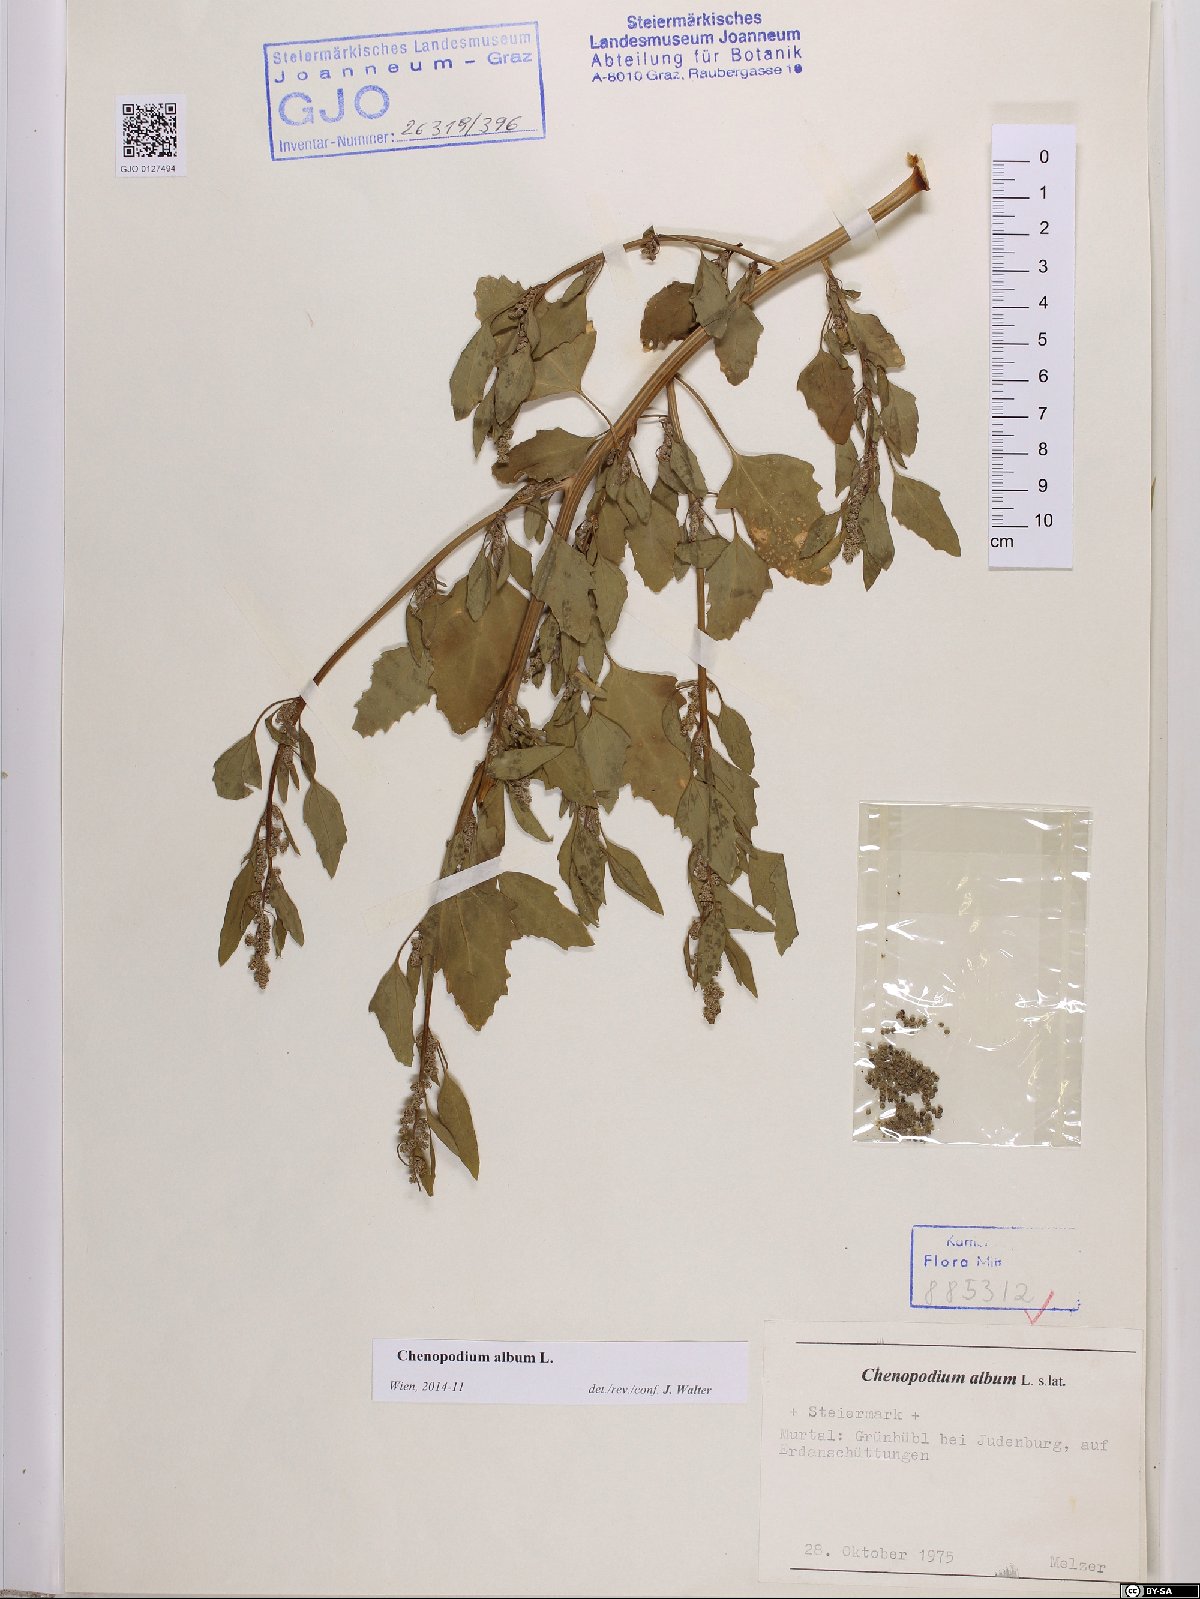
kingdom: Plantae
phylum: Tracheophyta
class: Magnoliopsida
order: Caryophyllales
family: Amaranthaceae
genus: Chenopodium
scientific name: Chenopodium album
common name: Fat-hen
